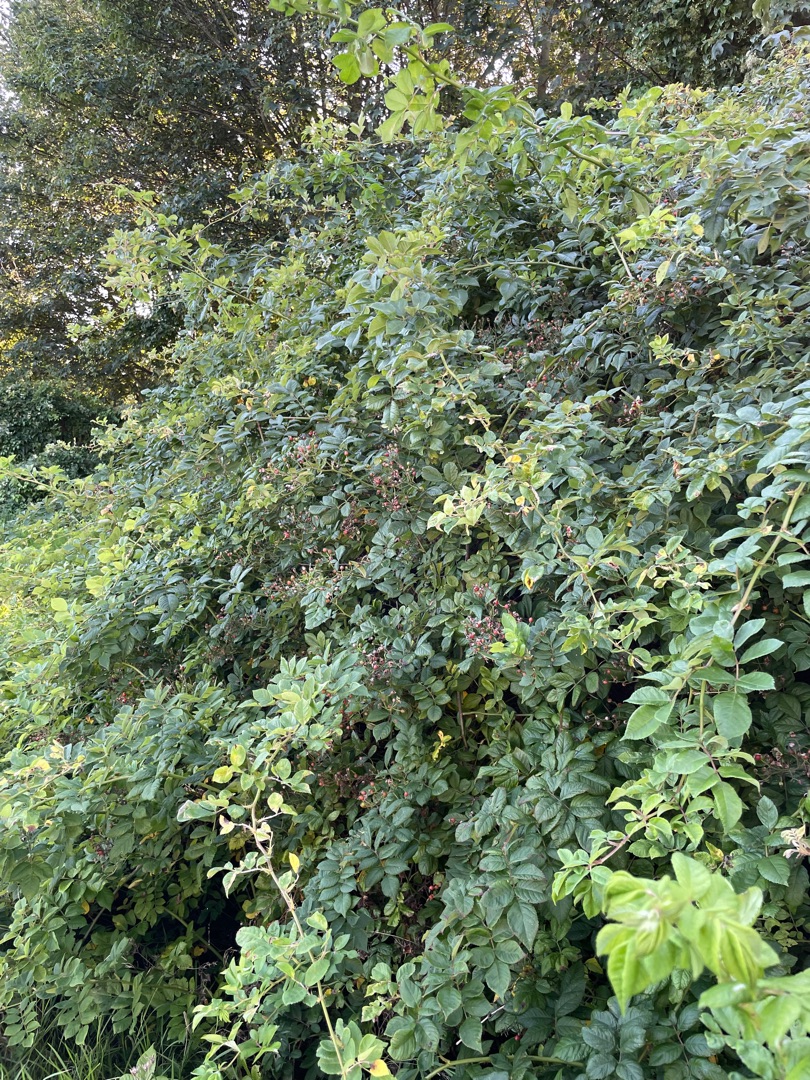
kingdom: Plantae
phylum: Tracheophyta
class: Magnoliopsida
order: Rosales
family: Rosaceae
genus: Rosa
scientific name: Rosa multiflora
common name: Mangeblomstret rose
